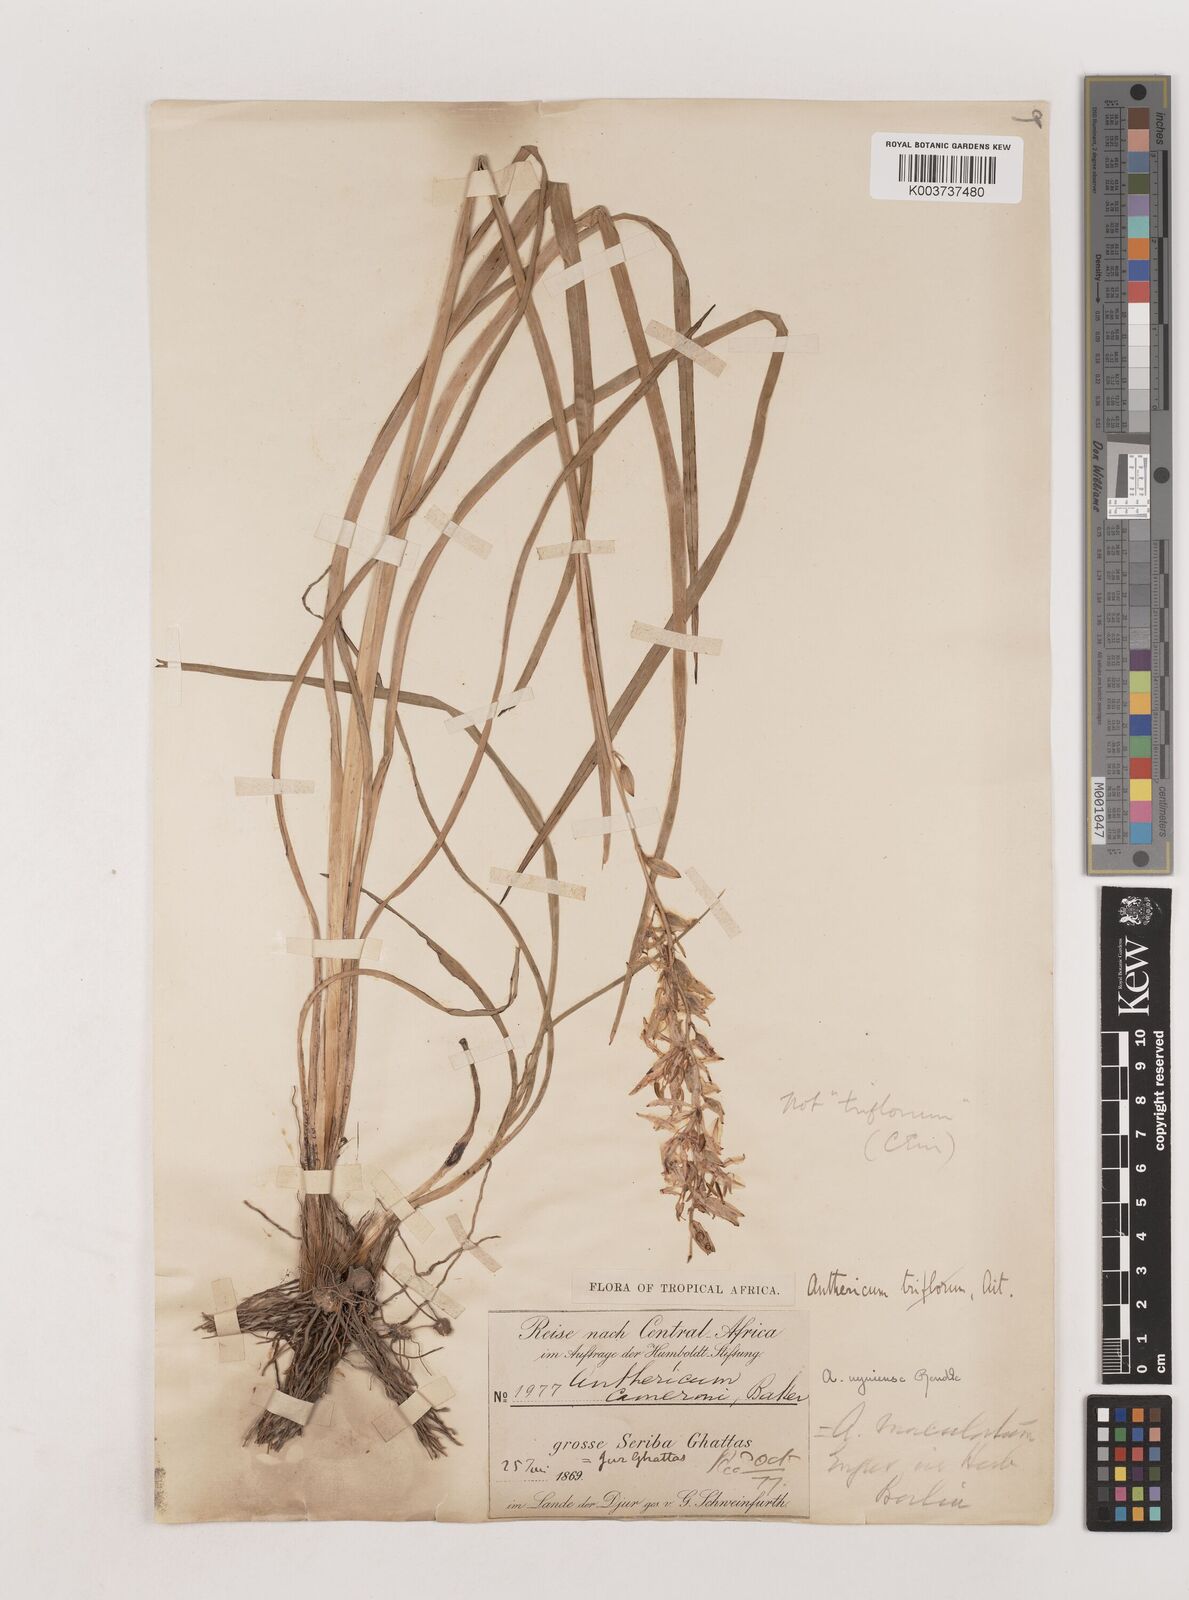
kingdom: Plantae
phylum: Tracheophyta
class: Liliopsida
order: Asparagales
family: Asparagaceae
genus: Chlorophytum
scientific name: Chlorophytum cameronii
